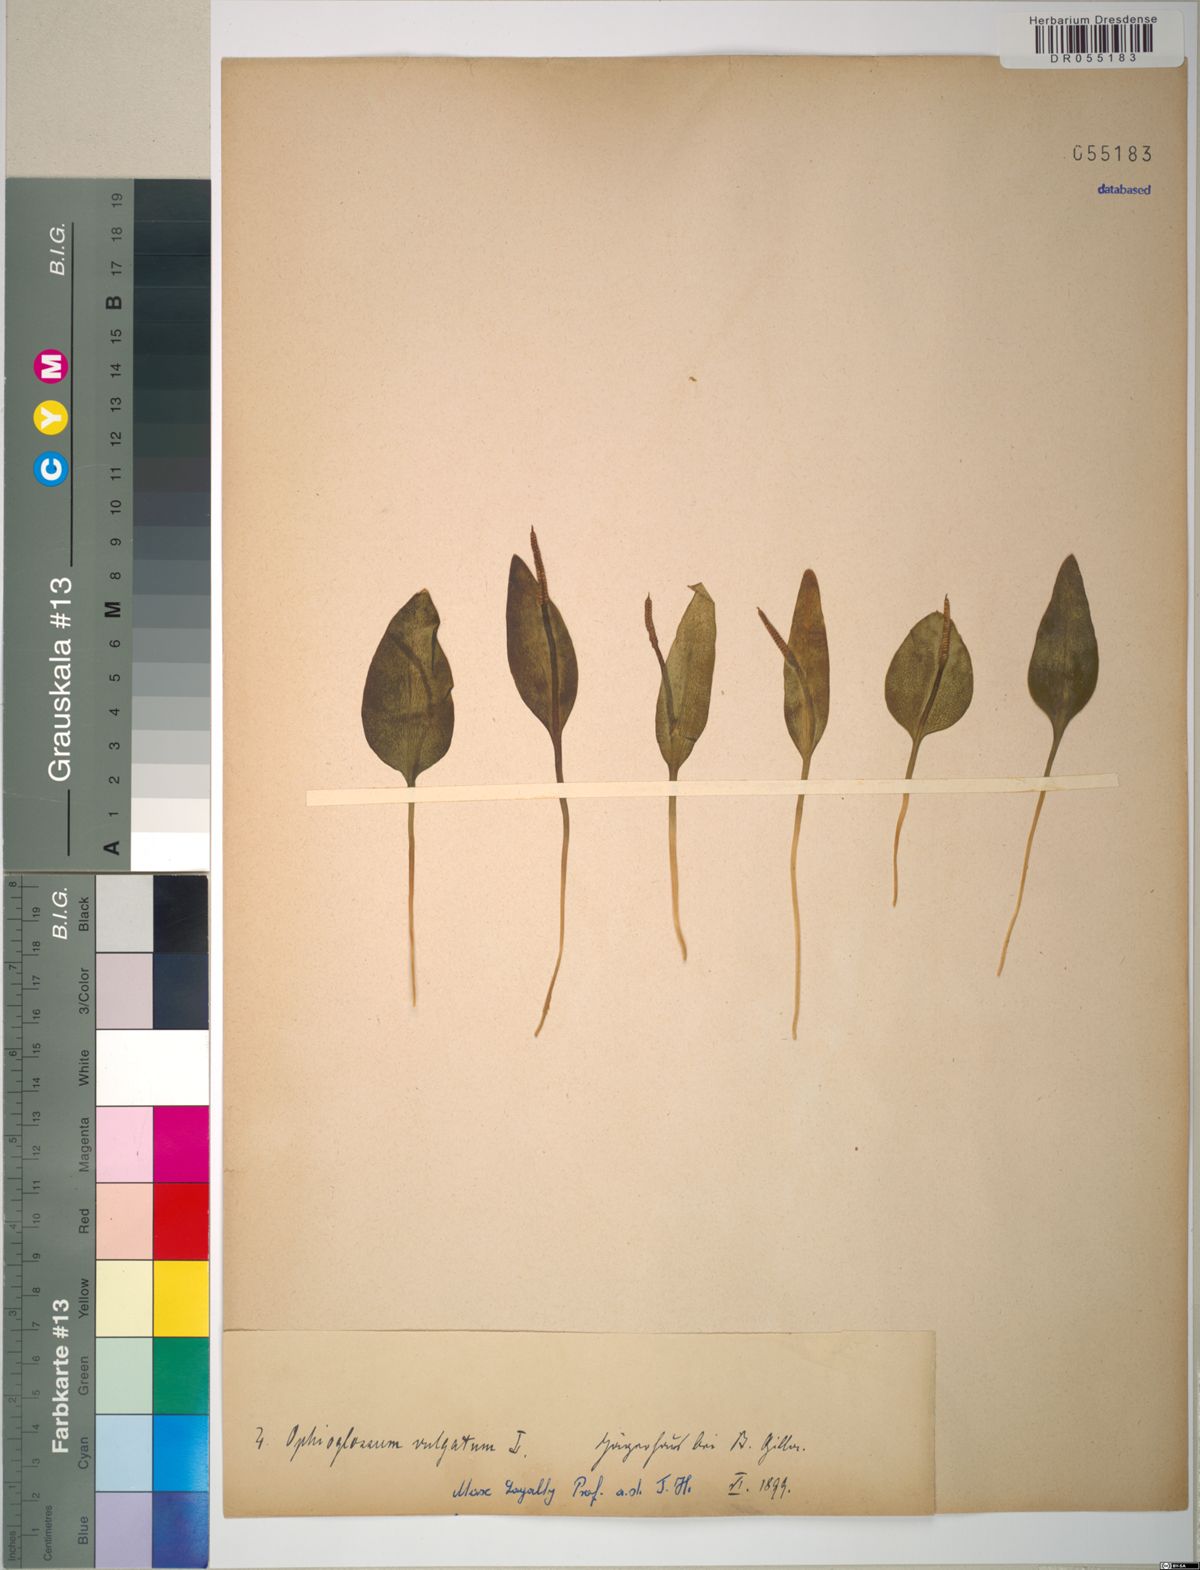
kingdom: Plantae
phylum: Tracheophyta
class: Polypodiopsida
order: Ophioglossales
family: Ophioglossaceae
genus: Ophioglossum
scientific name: Ophioglossum vulgatum
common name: Adder's-tongue
